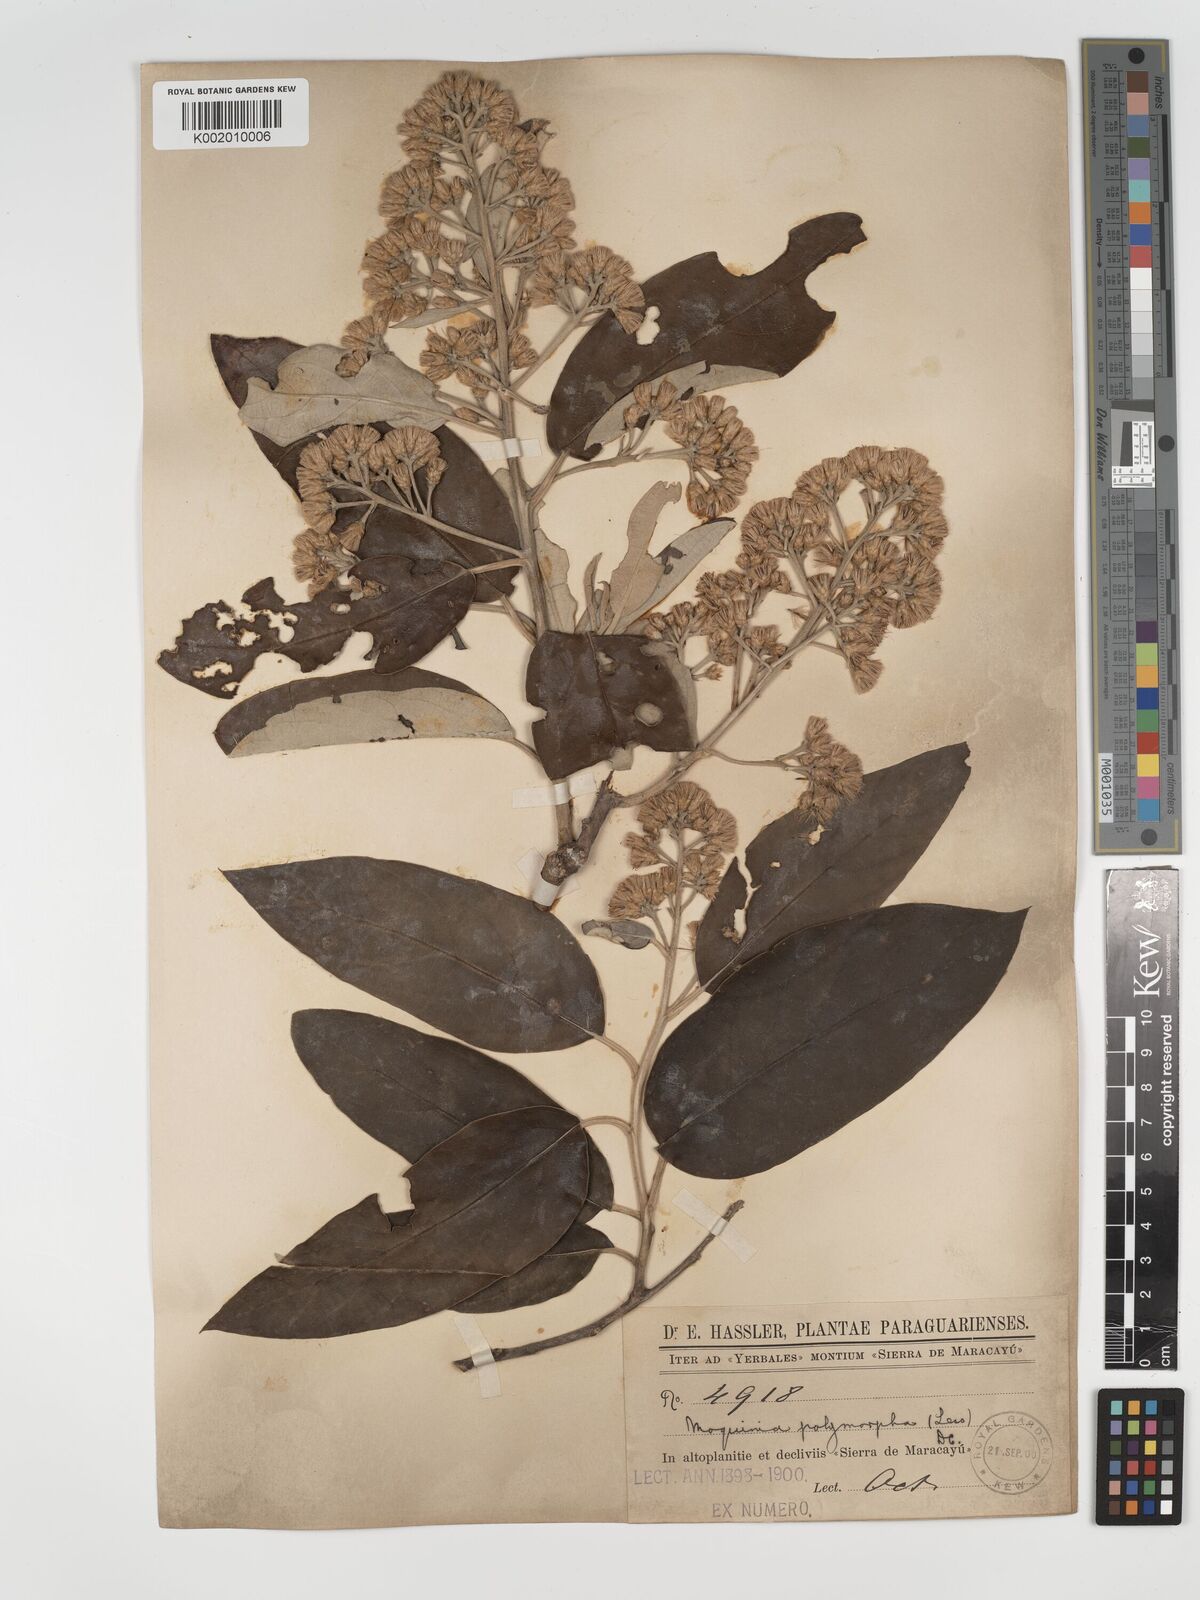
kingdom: Plantae
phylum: Tracheophyta
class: Magnoliopsida
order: Asterales
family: Asteraceae
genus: Moquiniastrum
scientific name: Moquiniastrum polymorphum
